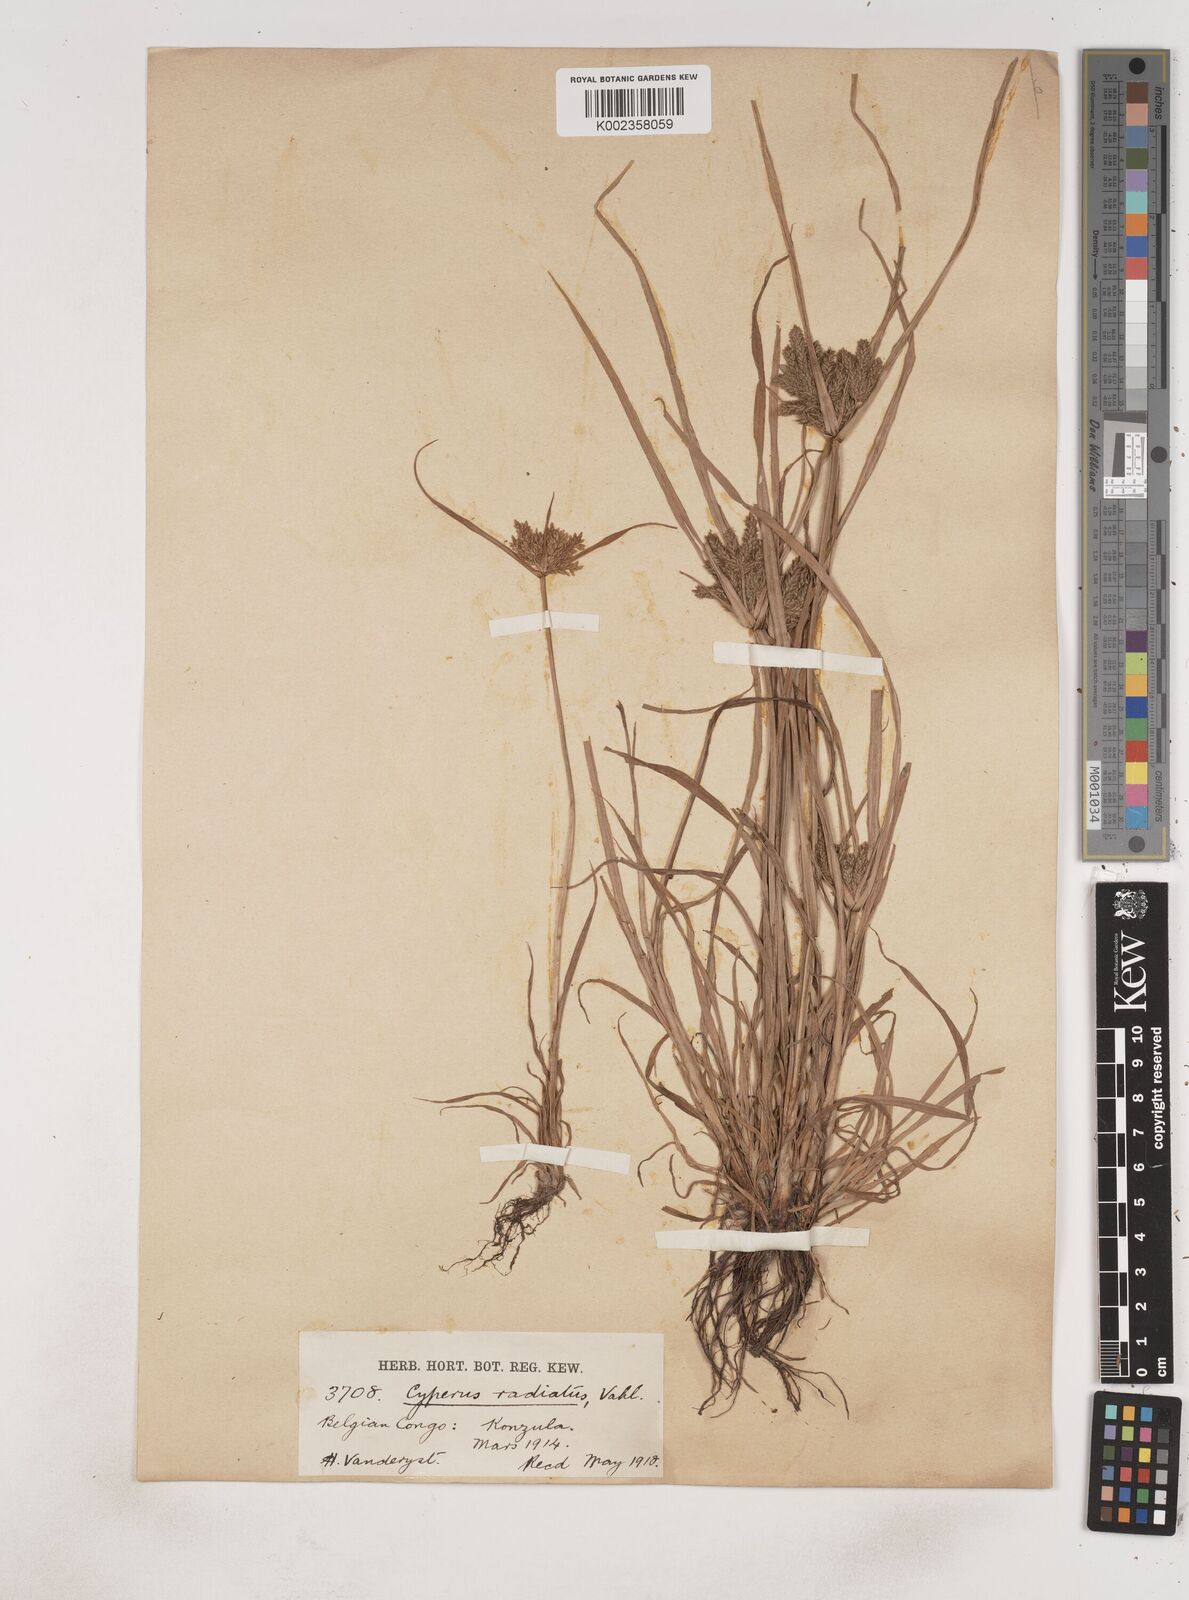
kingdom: Plantae
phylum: Tracheophyta
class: Liliopsida
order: Poales
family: Cyperaceae
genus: Cyperus
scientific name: Cyperus imbricatus
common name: Shingle flatsedge
